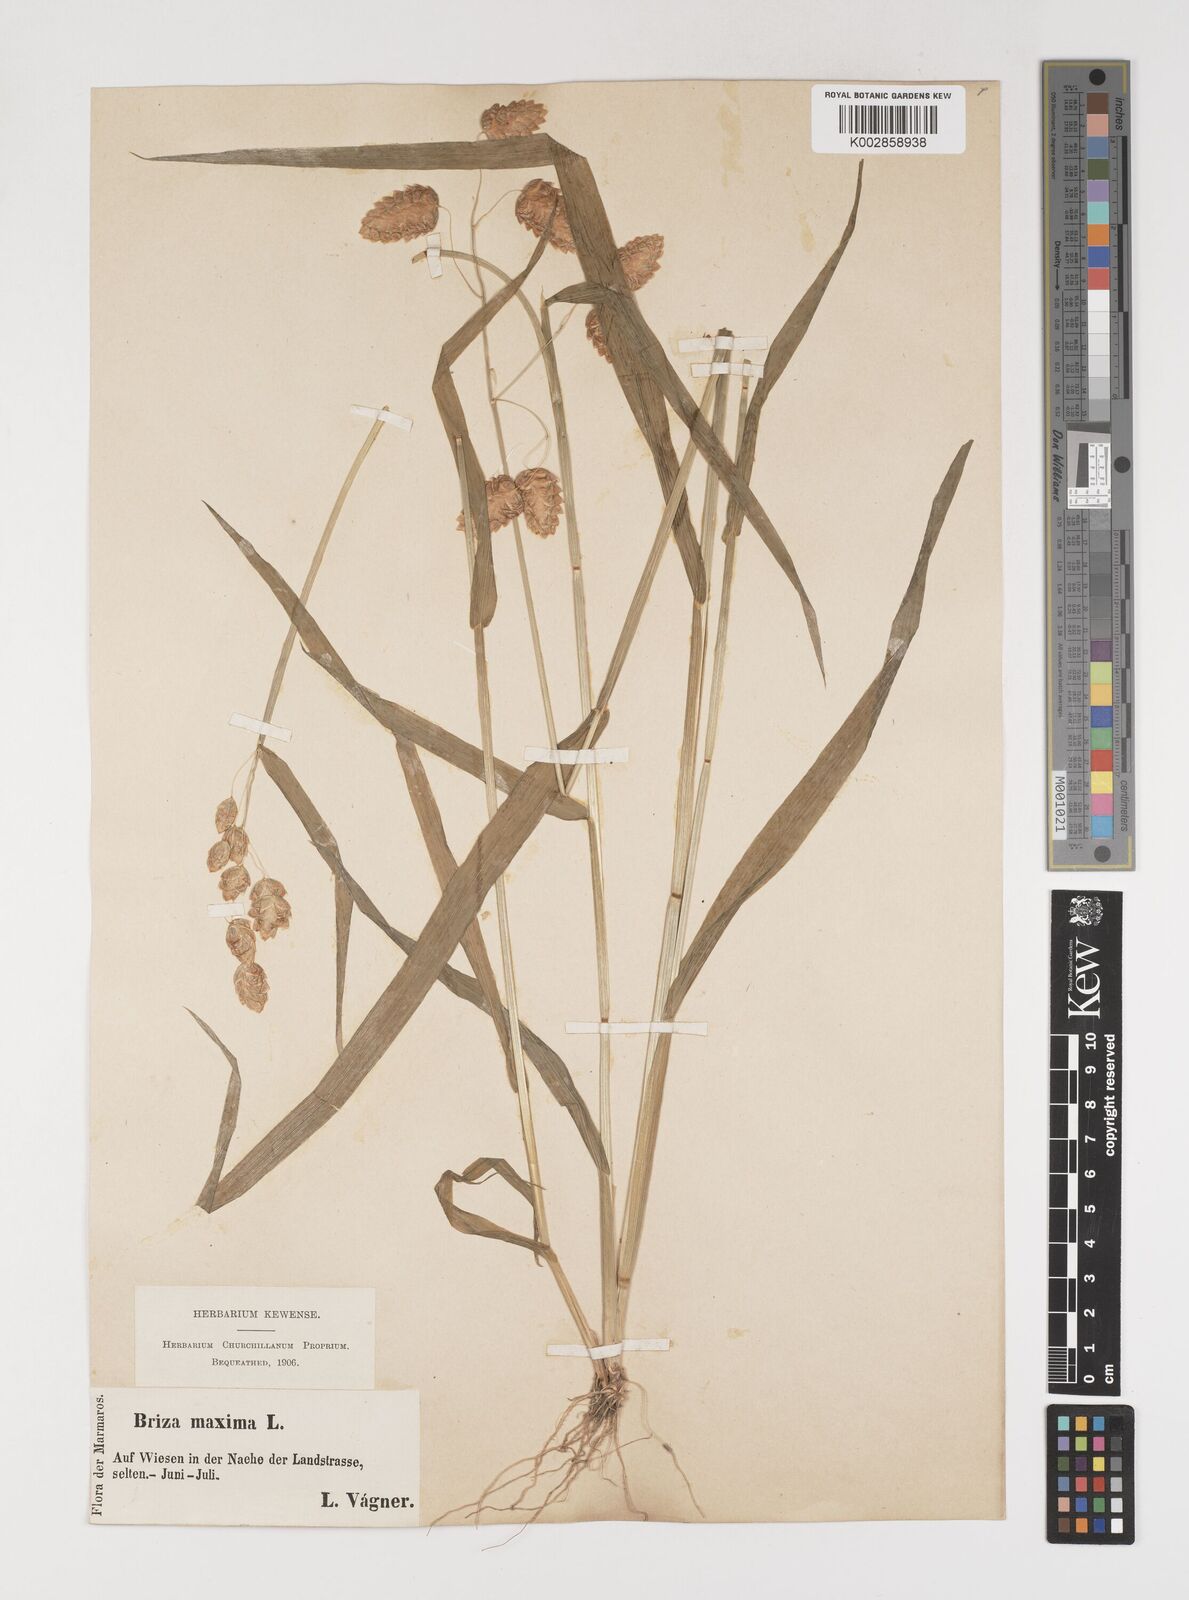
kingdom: Plantae
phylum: Tracheophyta
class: Liliopsida
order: Poales
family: Poaceae
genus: Briza
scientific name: Briza maxima
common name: Big quakinggrass
